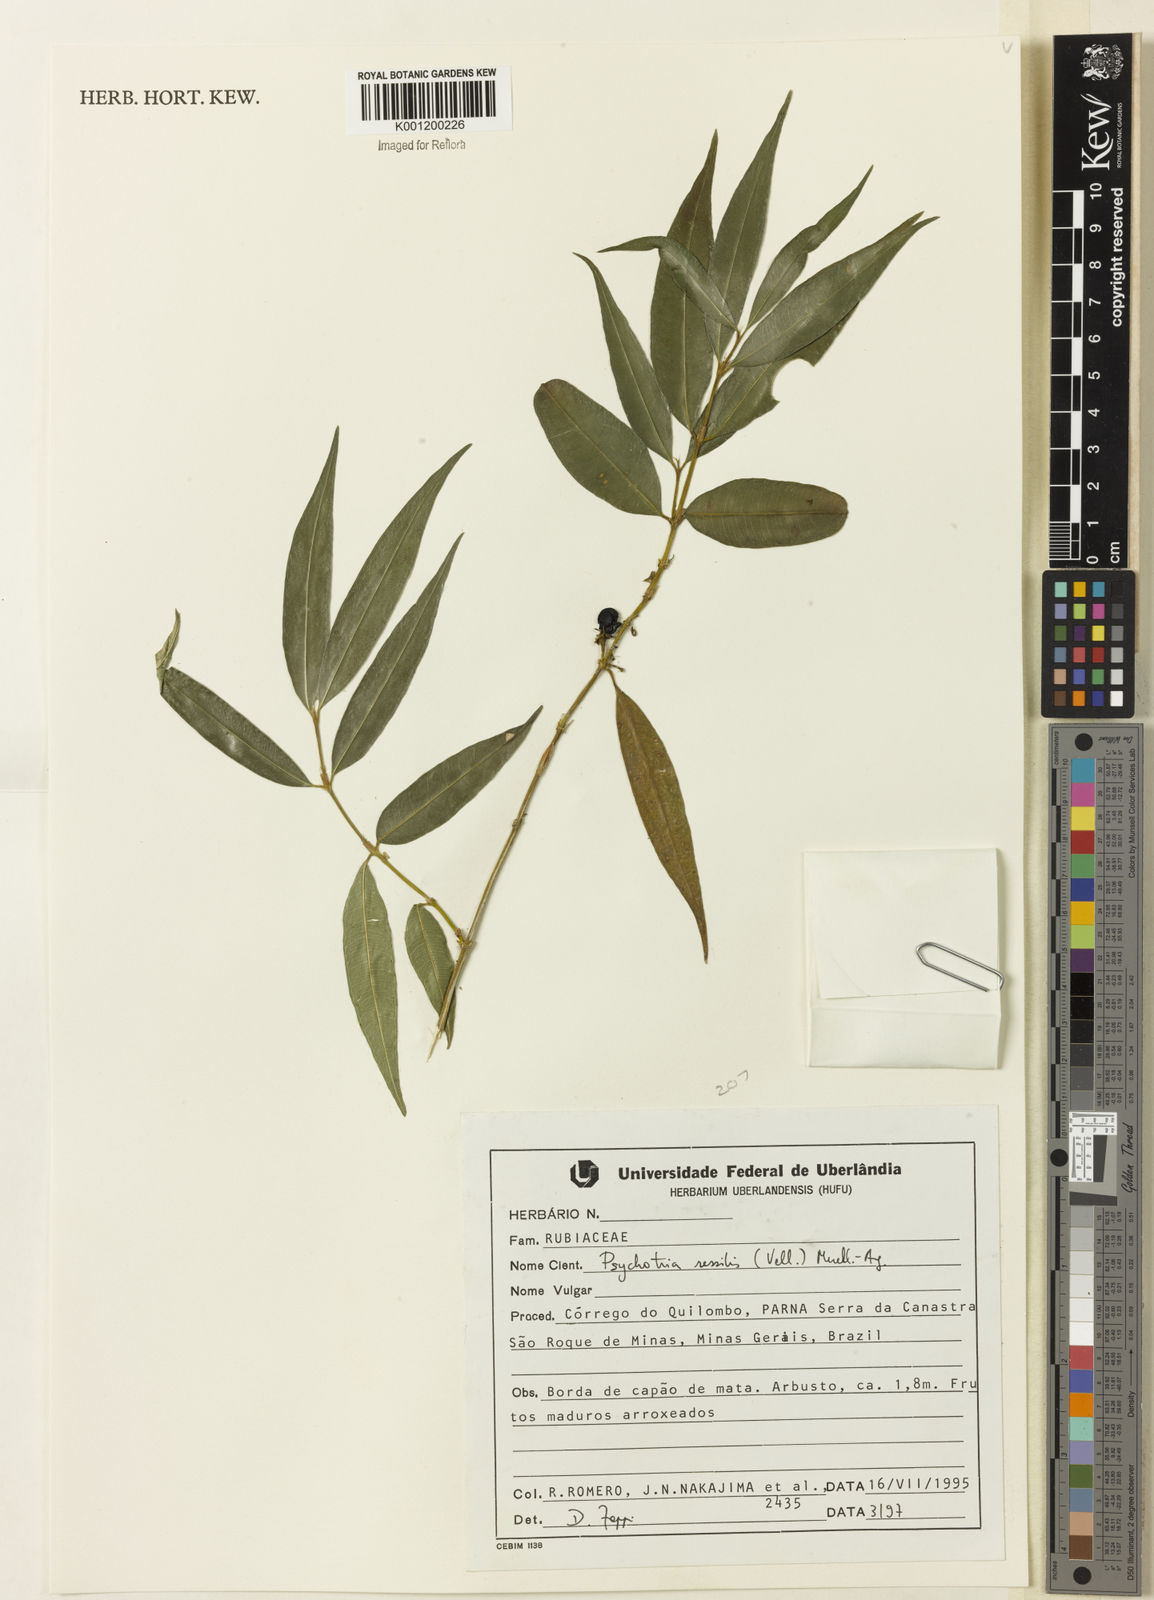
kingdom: Plantae
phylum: Tracheophyta
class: Magnoliopsida
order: Gentianales
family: Rubiaceae
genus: Rudgea
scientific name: Rudgea sessilis
